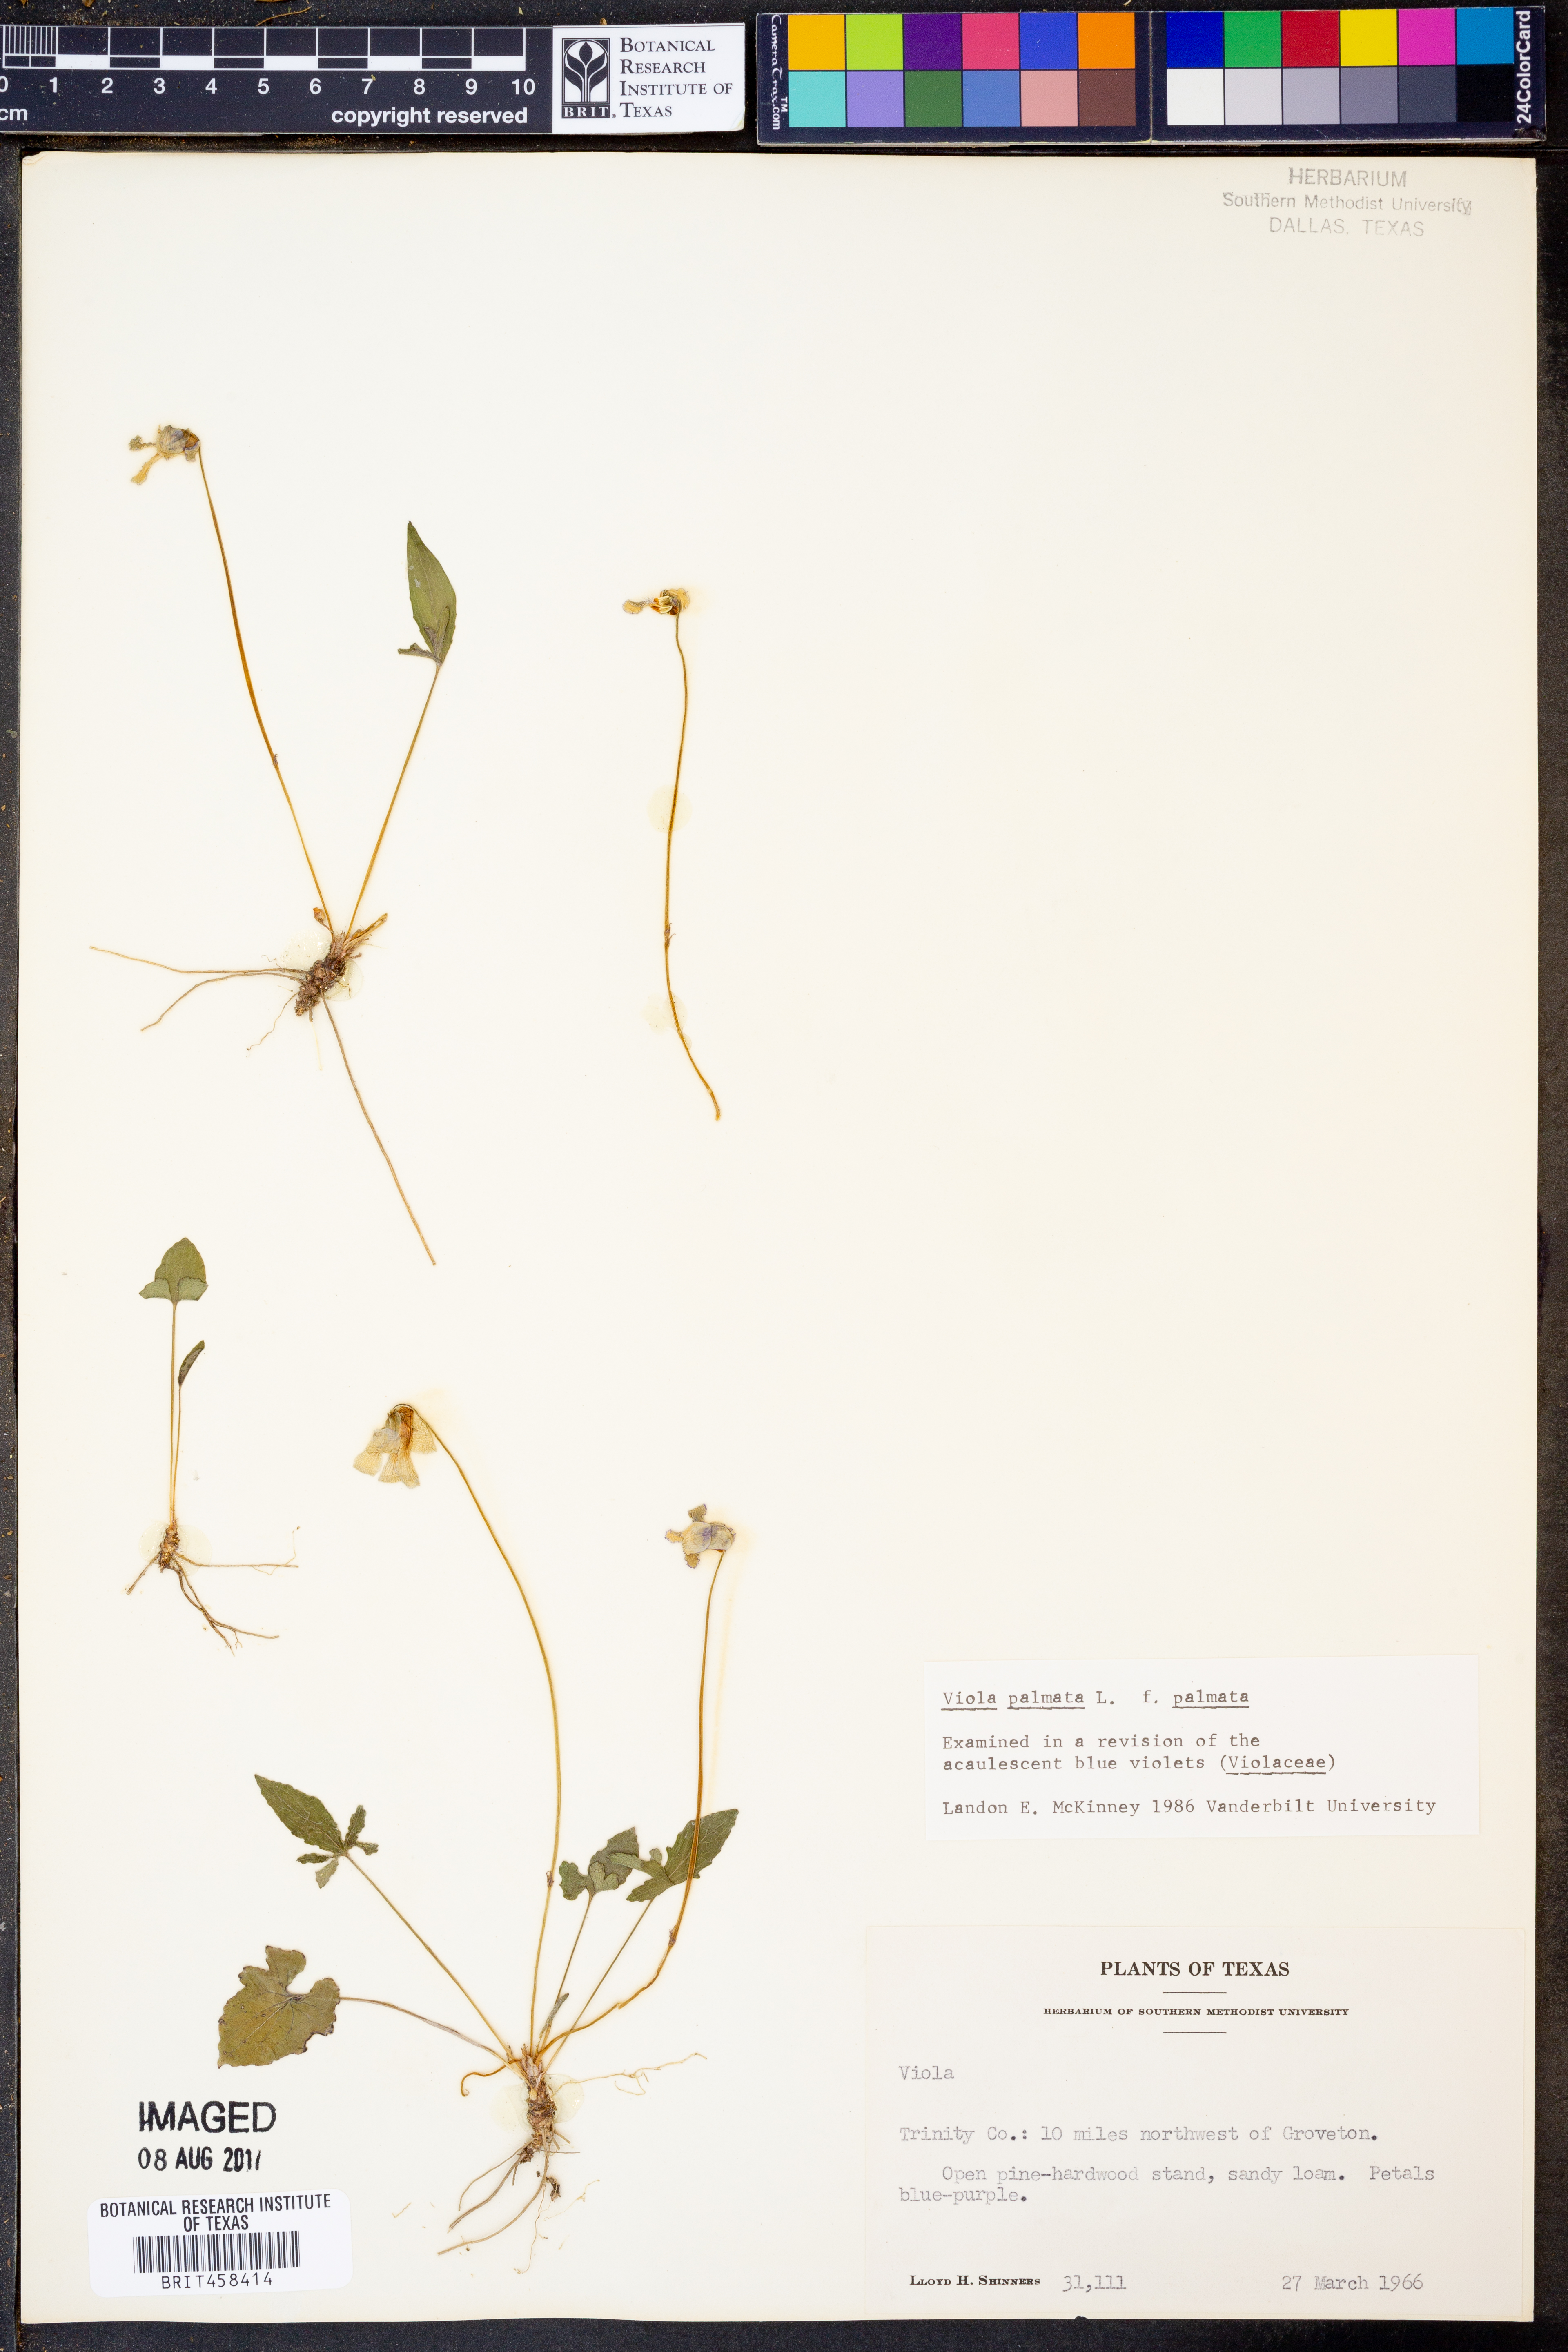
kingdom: Plantae
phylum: Tracheophyta
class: Magnoliopsida
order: Malpighiales
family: Violaceae
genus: Viola
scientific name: Viola palmata
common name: Early blue violet
